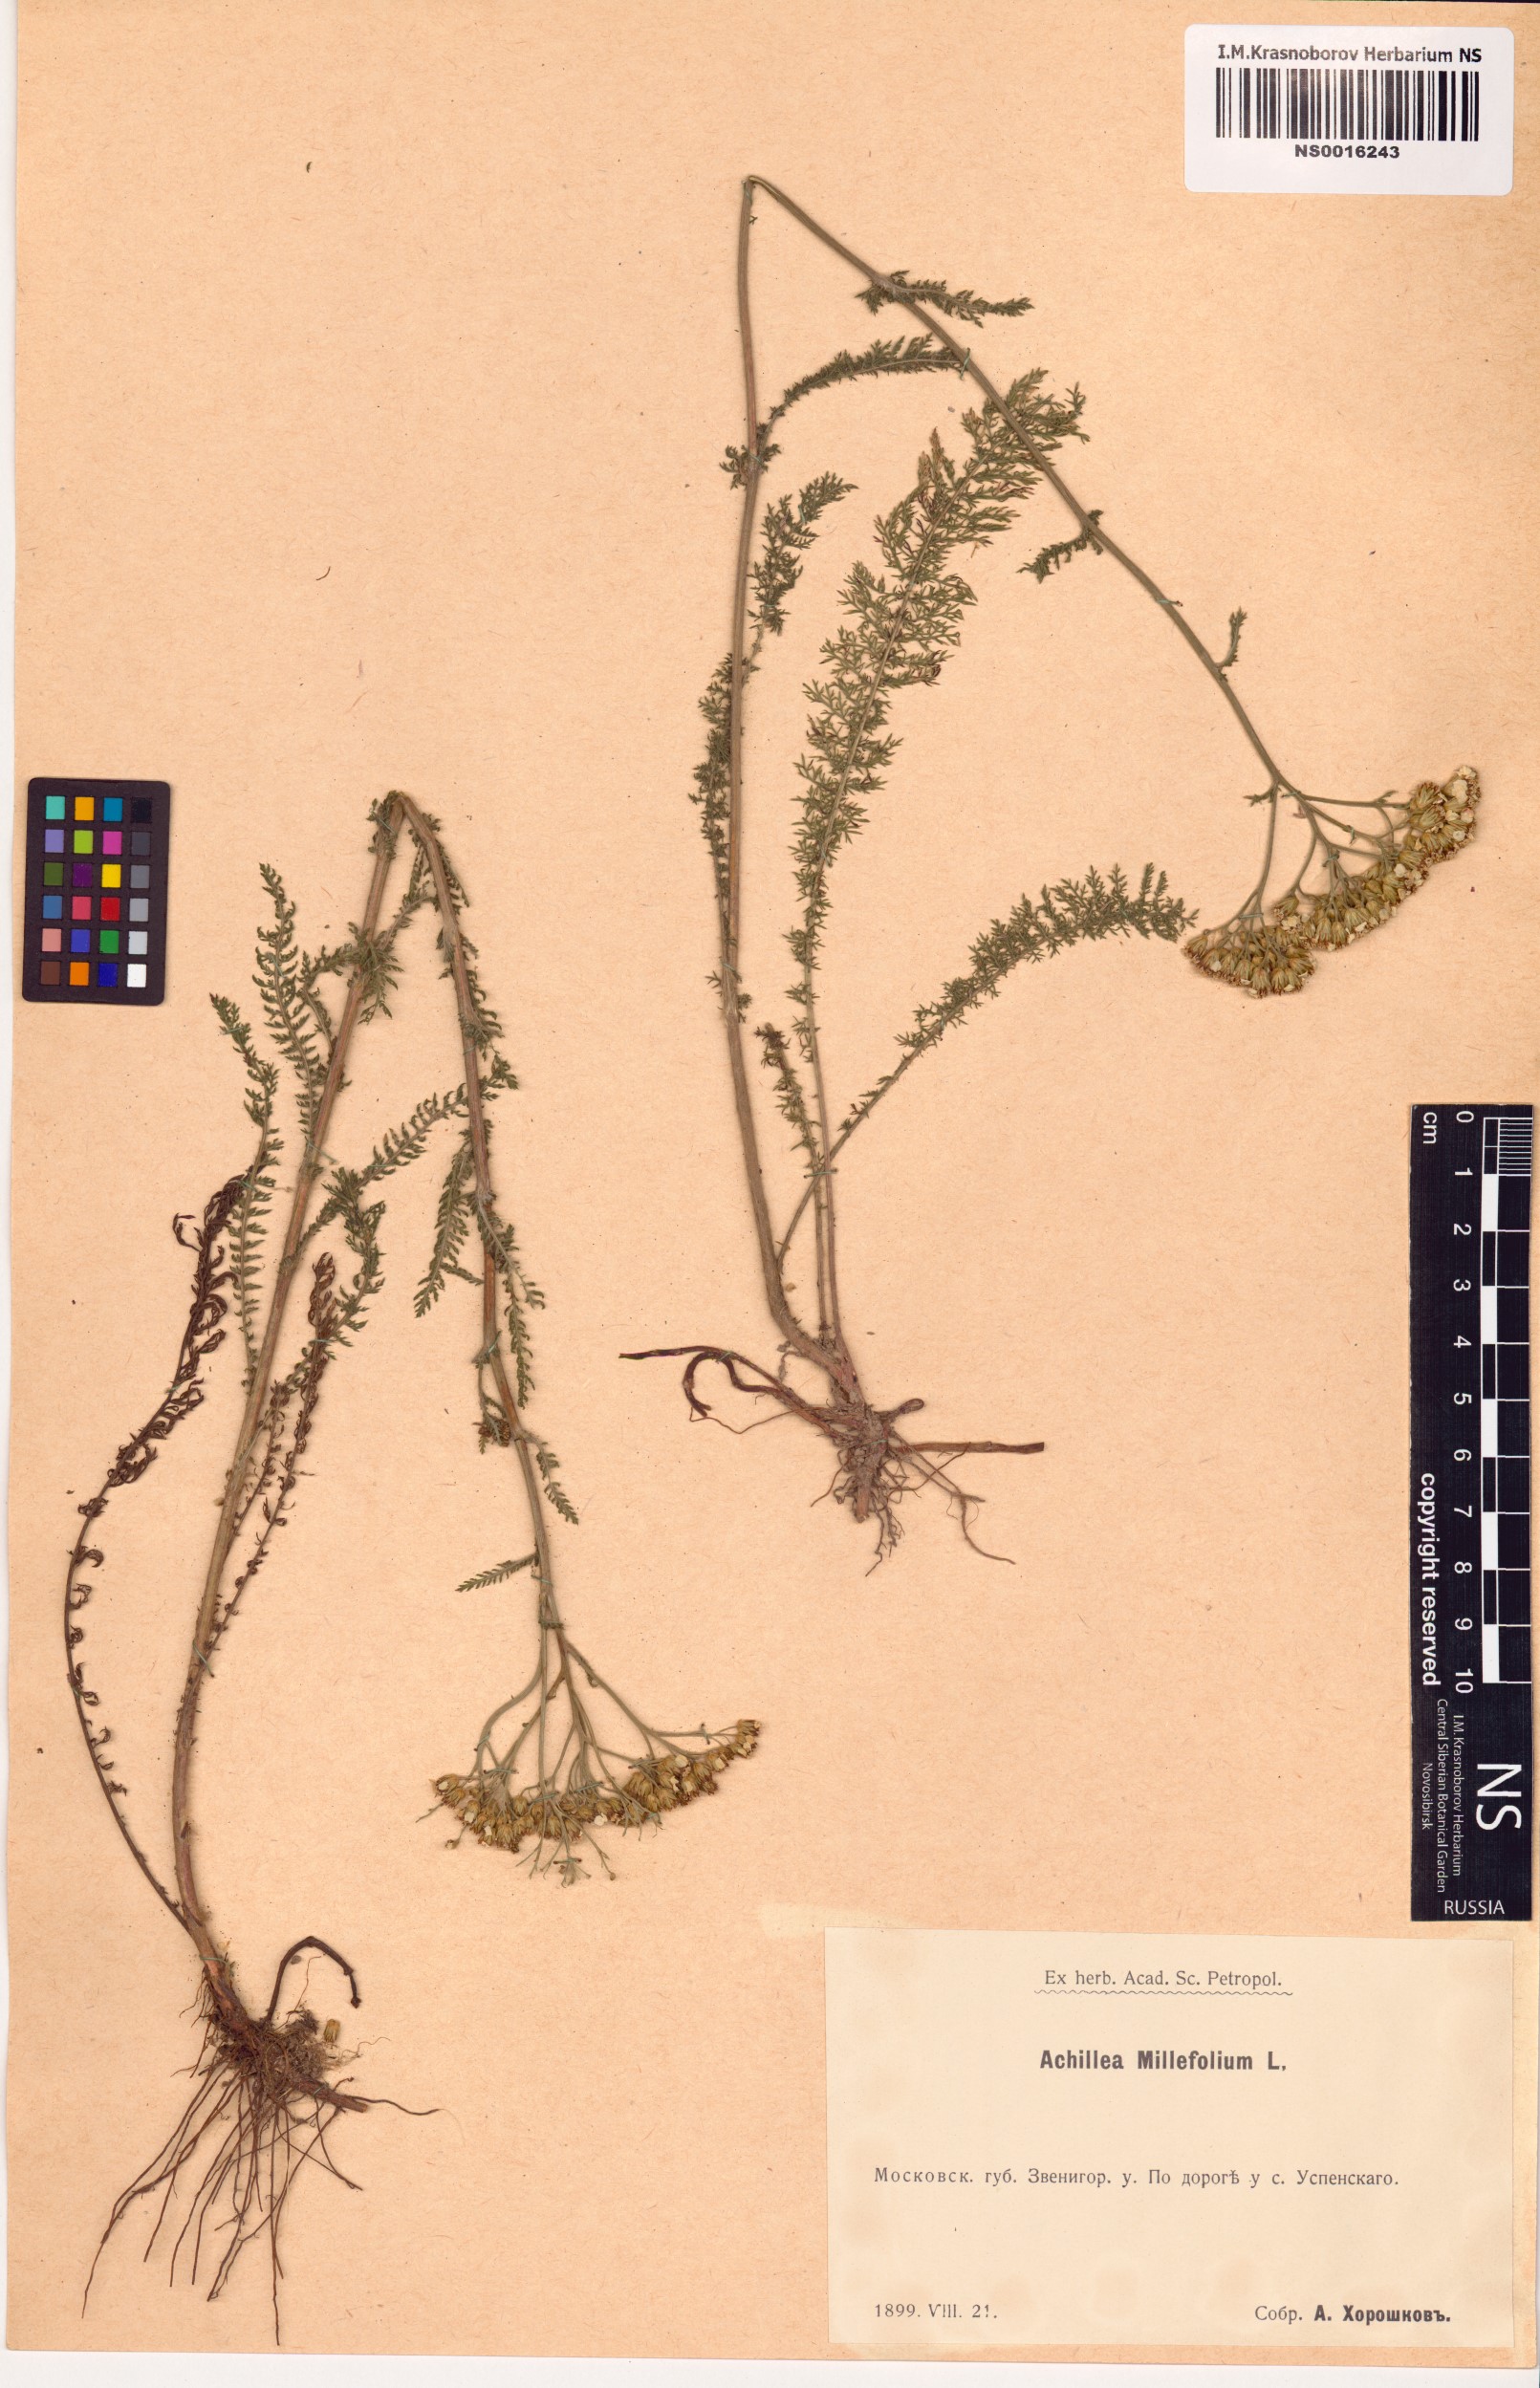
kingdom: Plantae
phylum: Tracheophyta
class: Magnoliopsida
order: Asterales
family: Asteraceae
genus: Achillea
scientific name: Achillea millefolium
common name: Yarrow
